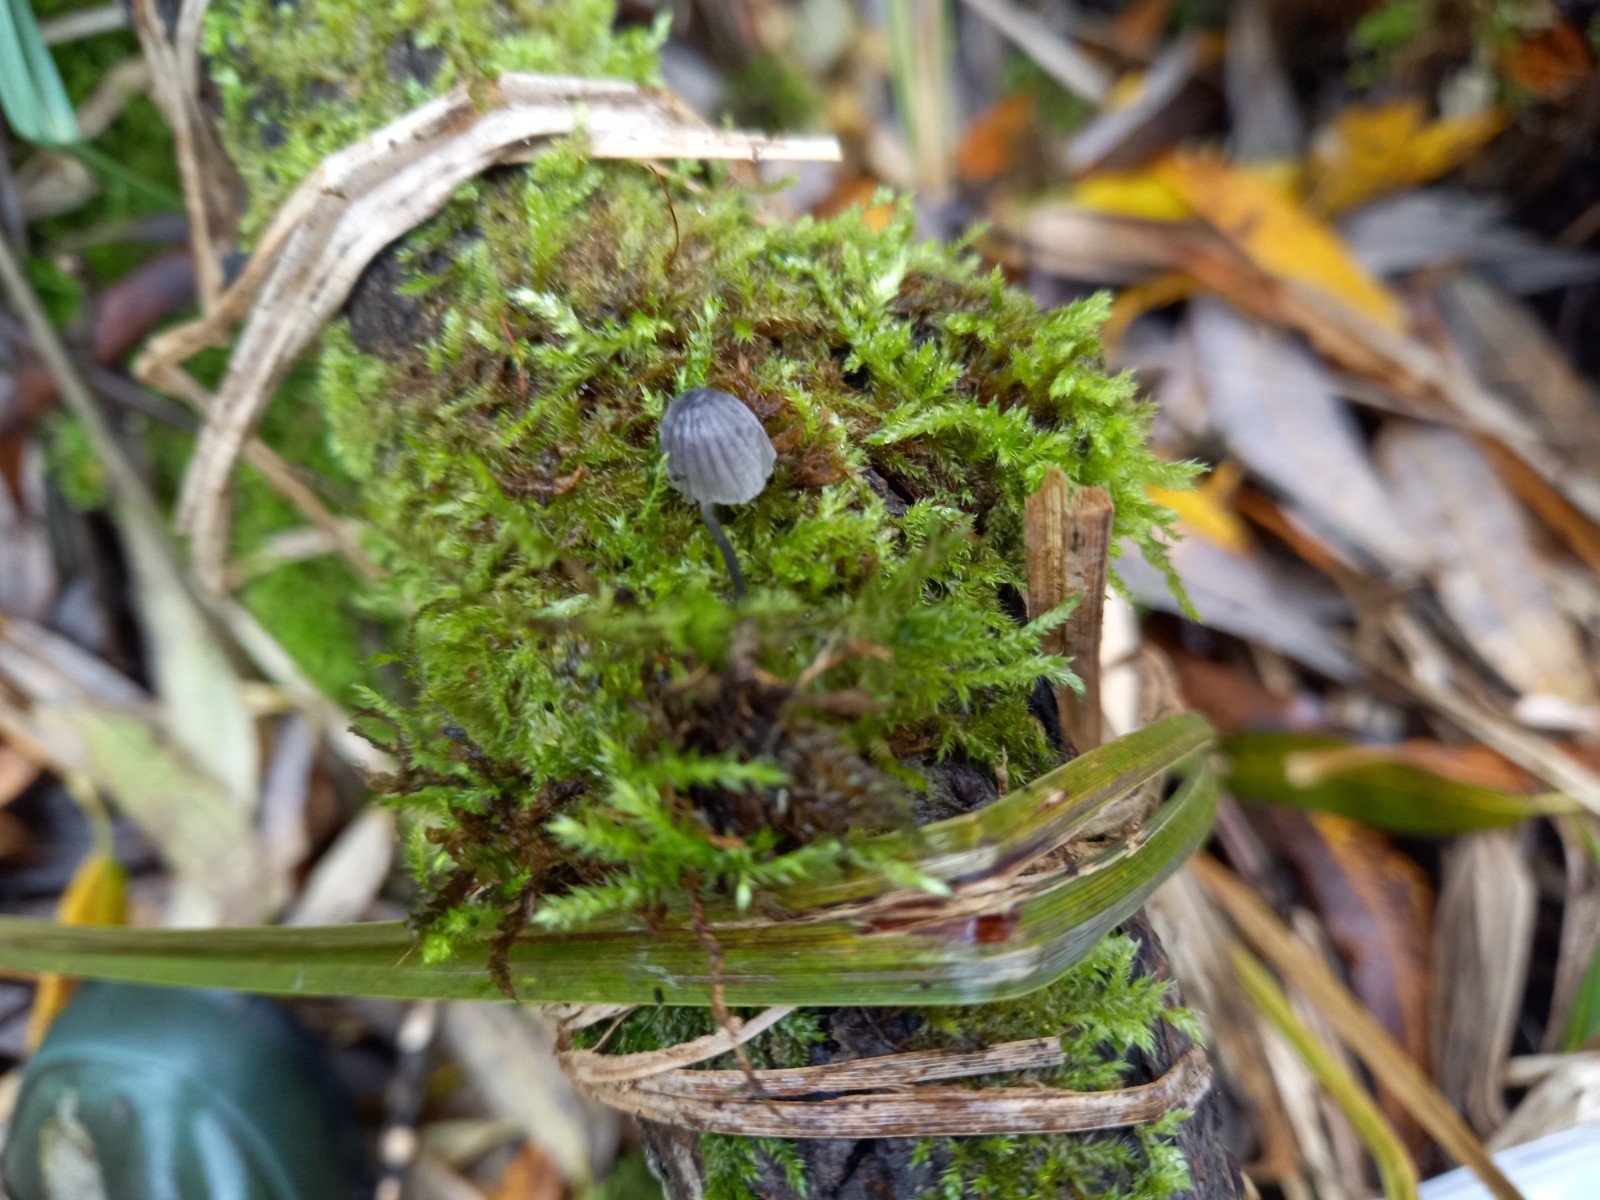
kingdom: Fungi
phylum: Basidiomycota
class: Agaricomycetes
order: Agaricales
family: Mycenaceae
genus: Mycena
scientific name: Mycena pseudocorticola
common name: gråblå bark-huesvamp
